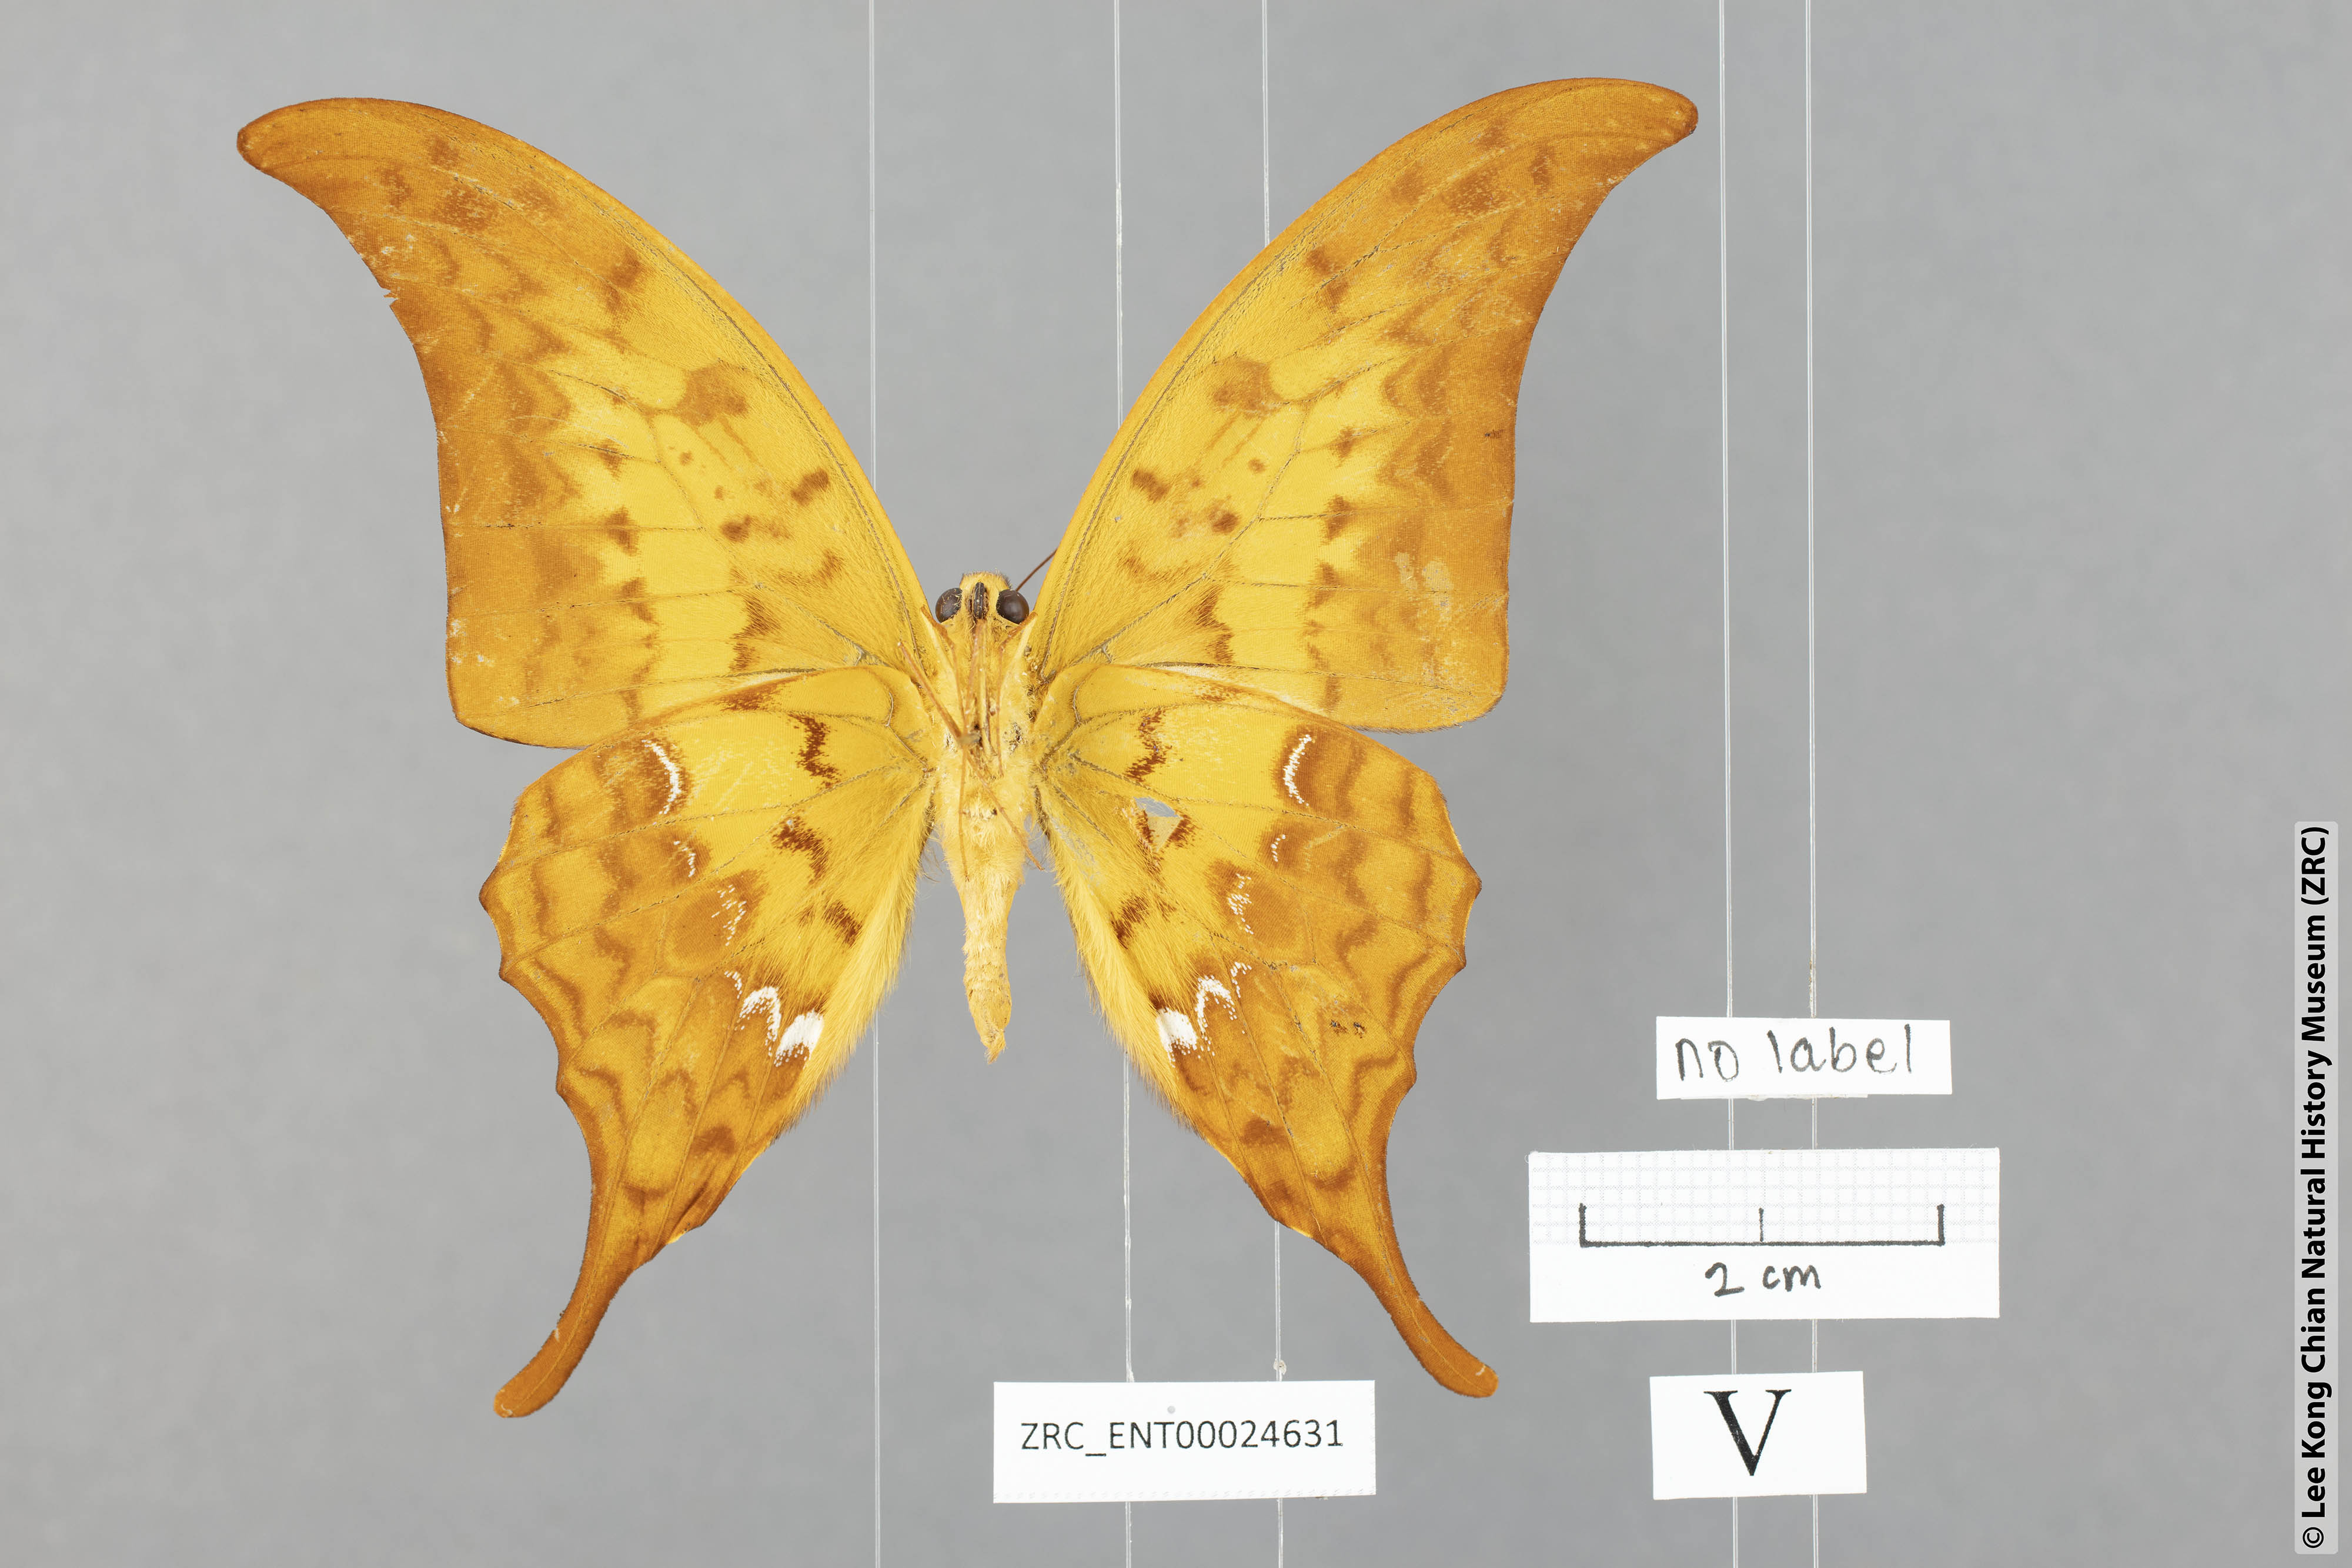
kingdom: Animalia
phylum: Arthropoda
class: Insecta
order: Lepidoptera
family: Papilionidae
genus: Meandrusa
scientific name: Meandrusa payeni
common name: Outlet sword
